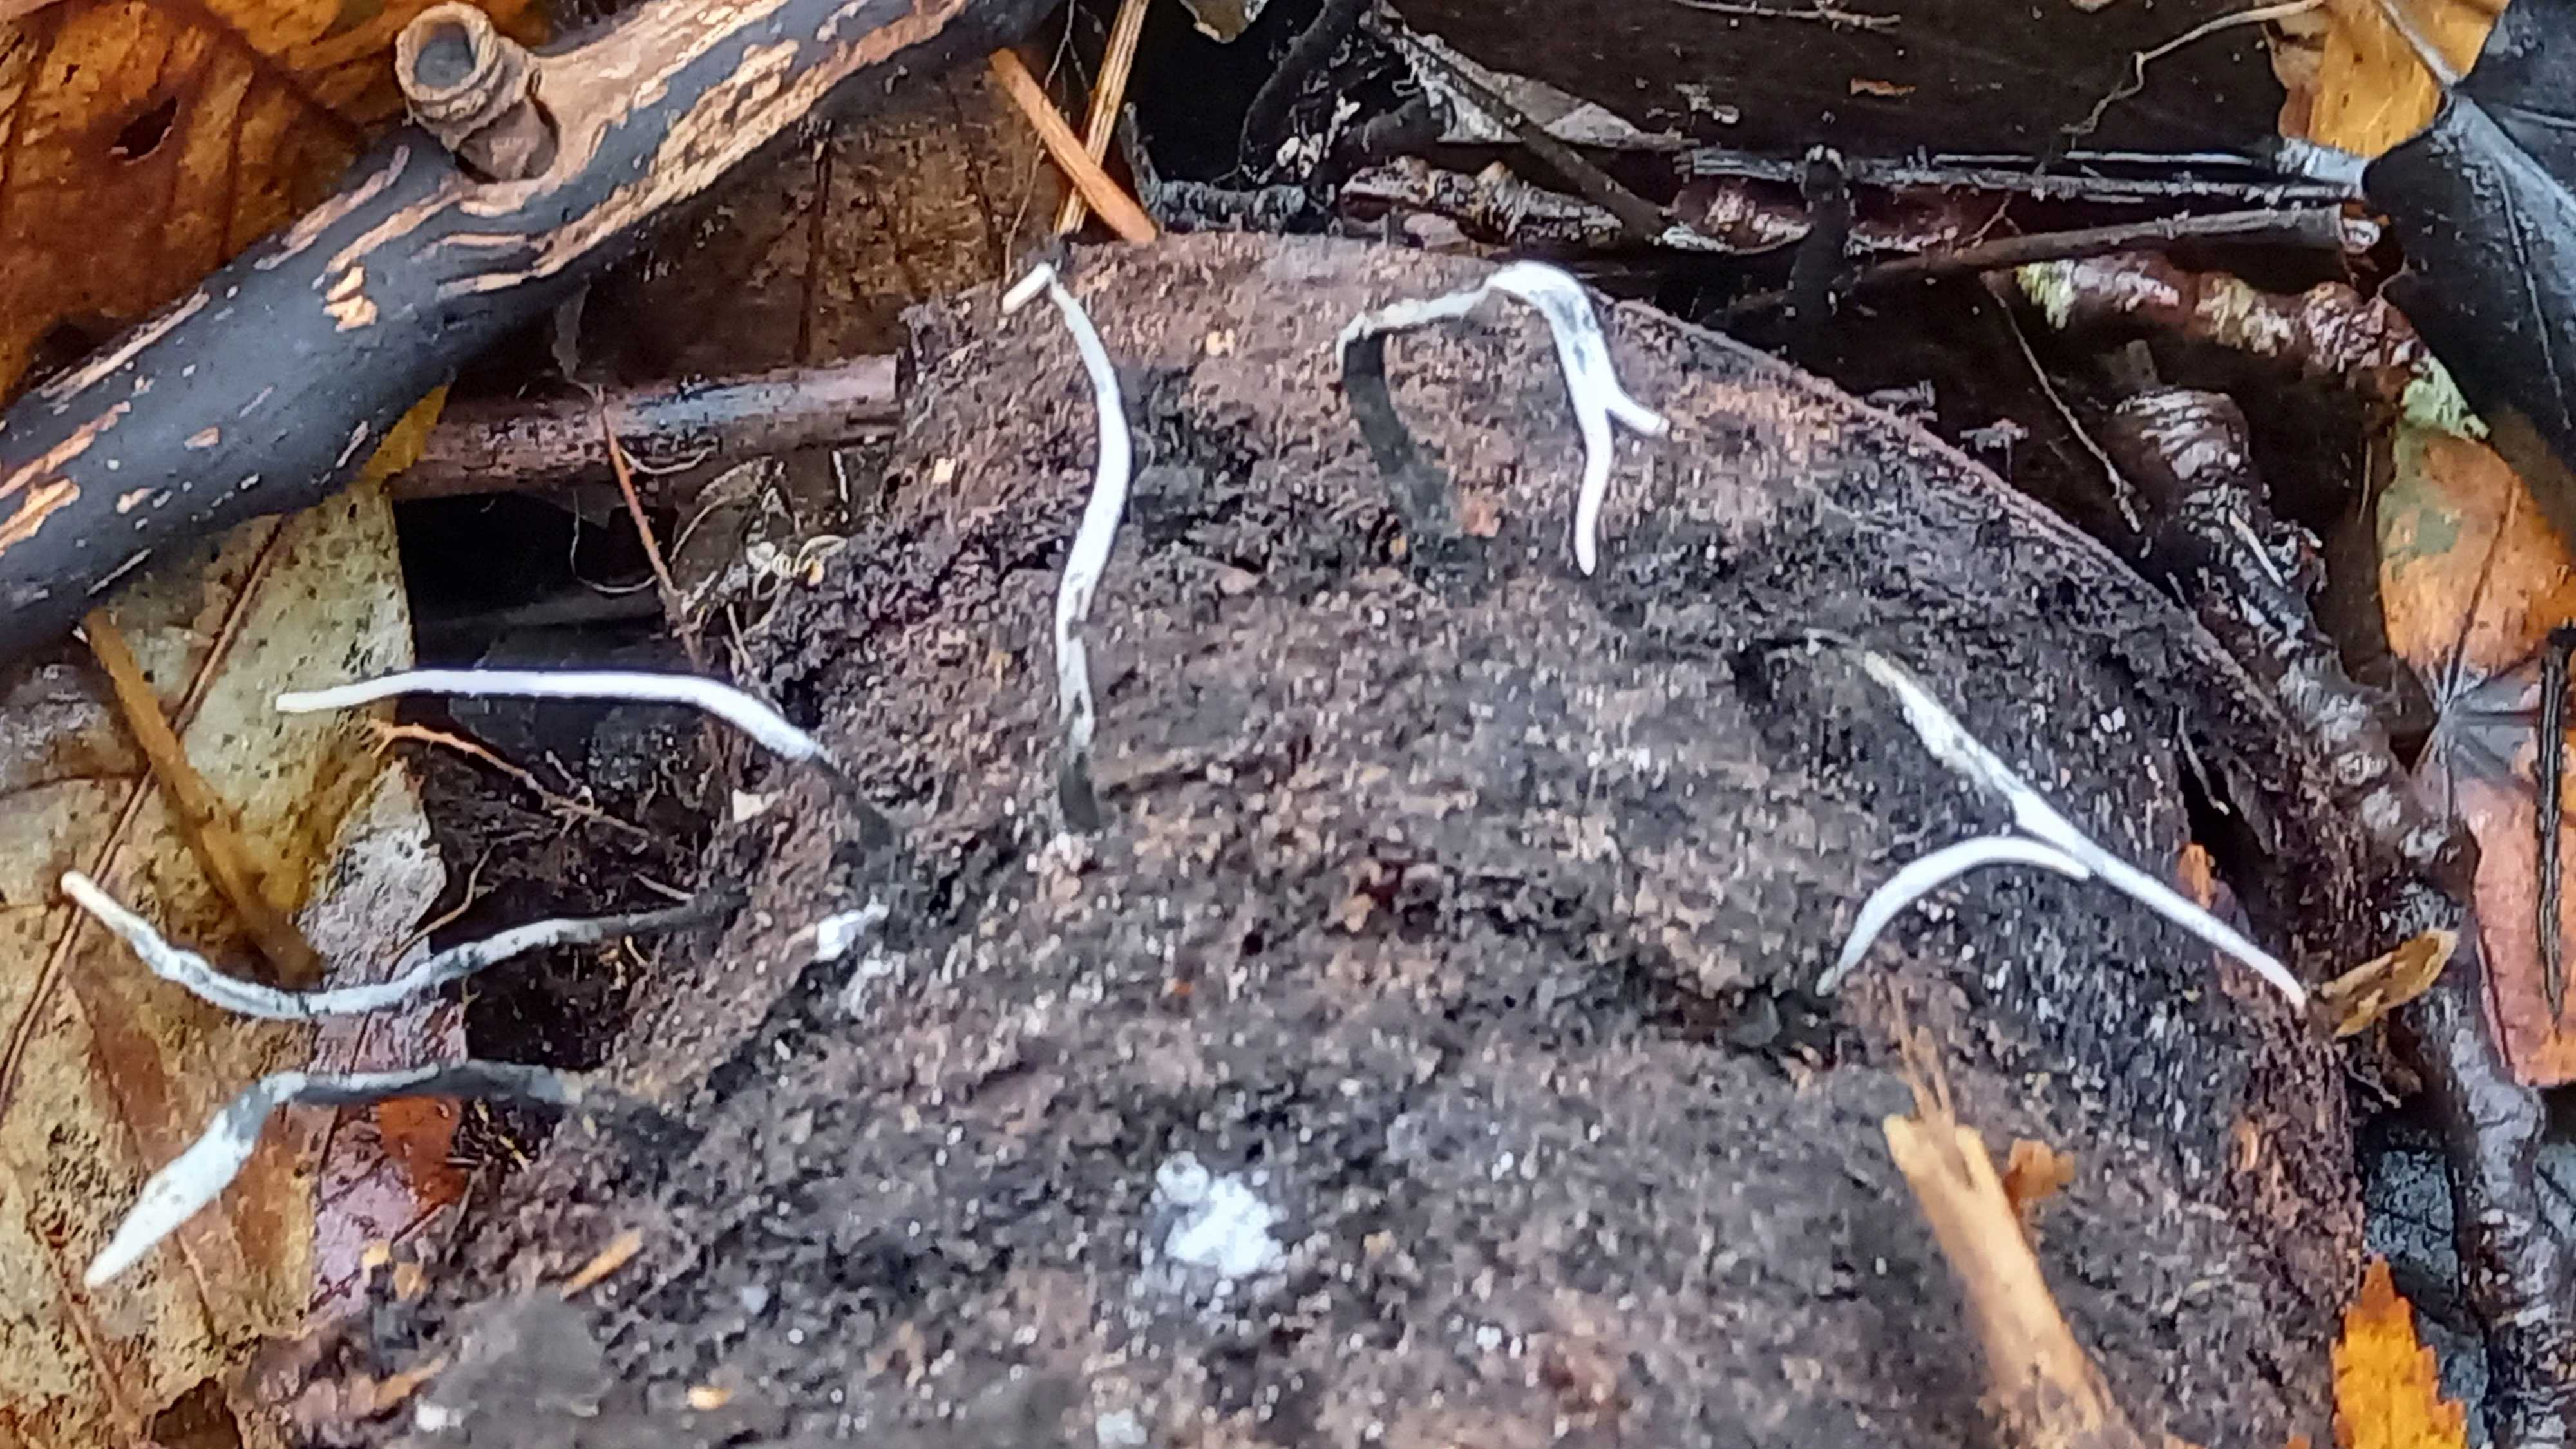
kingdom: Fungi
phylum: Ascomycota
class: Sordariomycetes
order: Xylariales
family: Xylariaceae
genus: Xylaria
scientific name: Xylaria hypoxylon
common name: grenet stødsvamp
